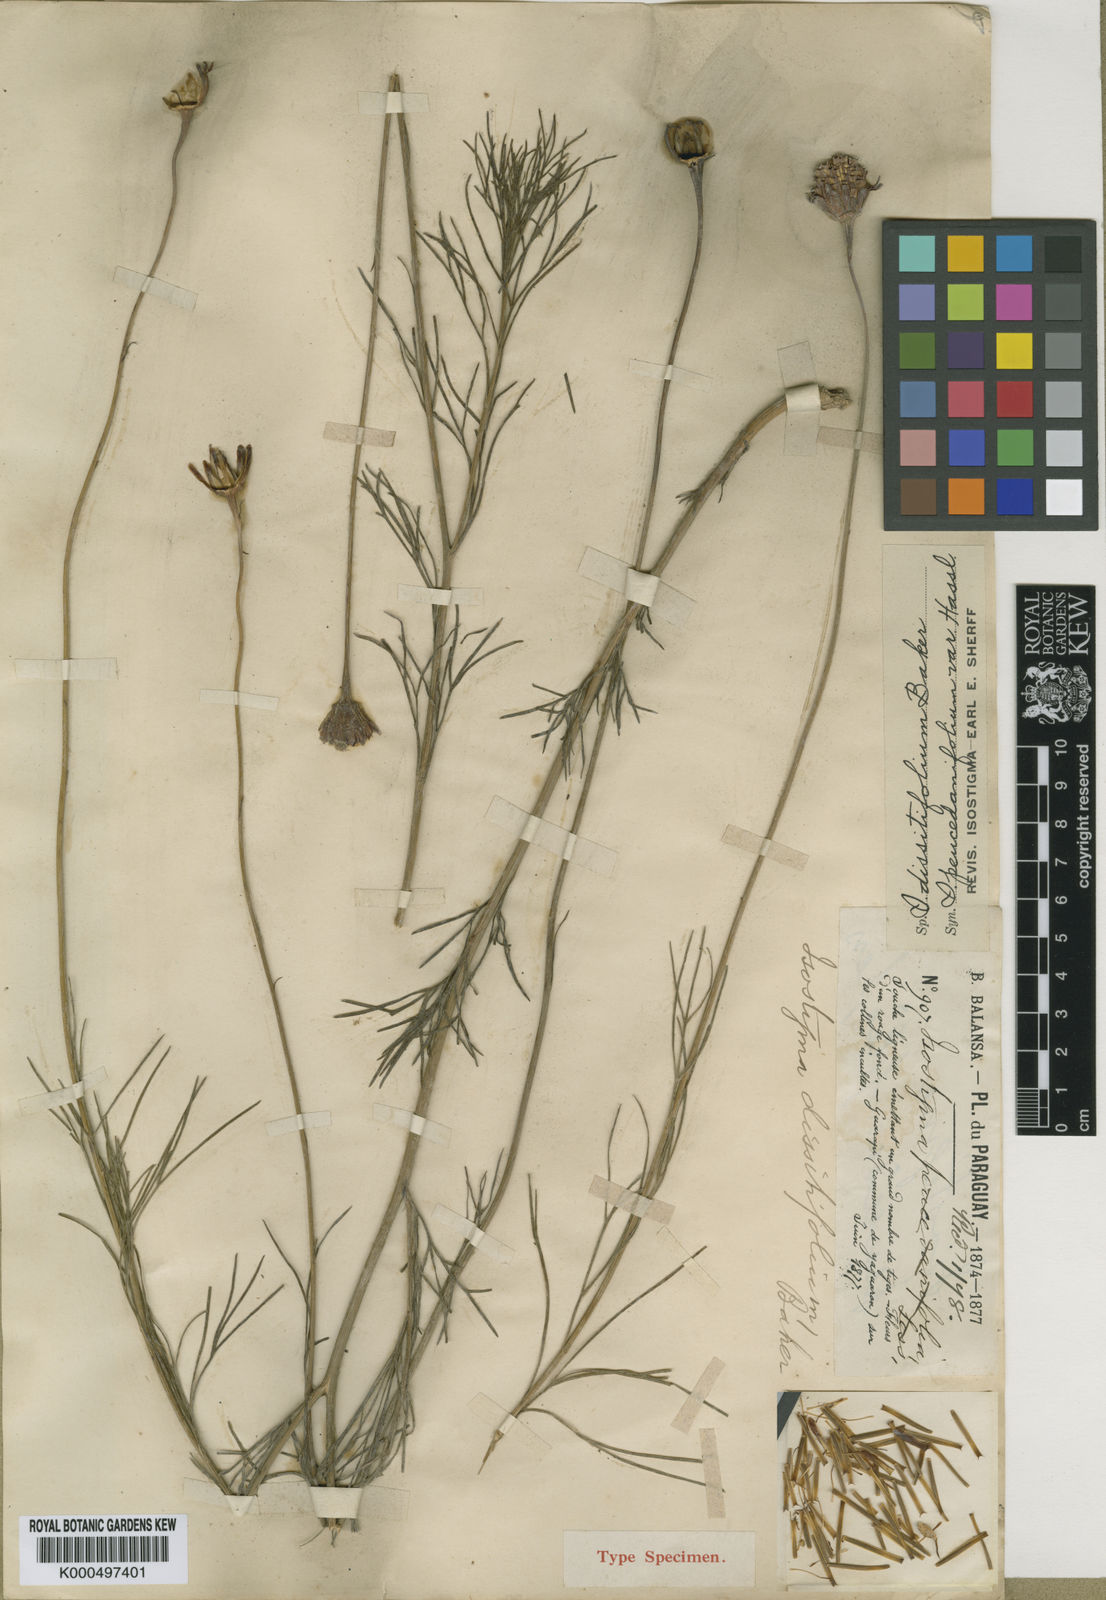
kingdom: Plantae
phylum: Tracheophyta
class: Magnoliopsida
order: Asterales
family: Asteraceae
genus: Isostigma
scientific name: Isostigma dissitifolium
